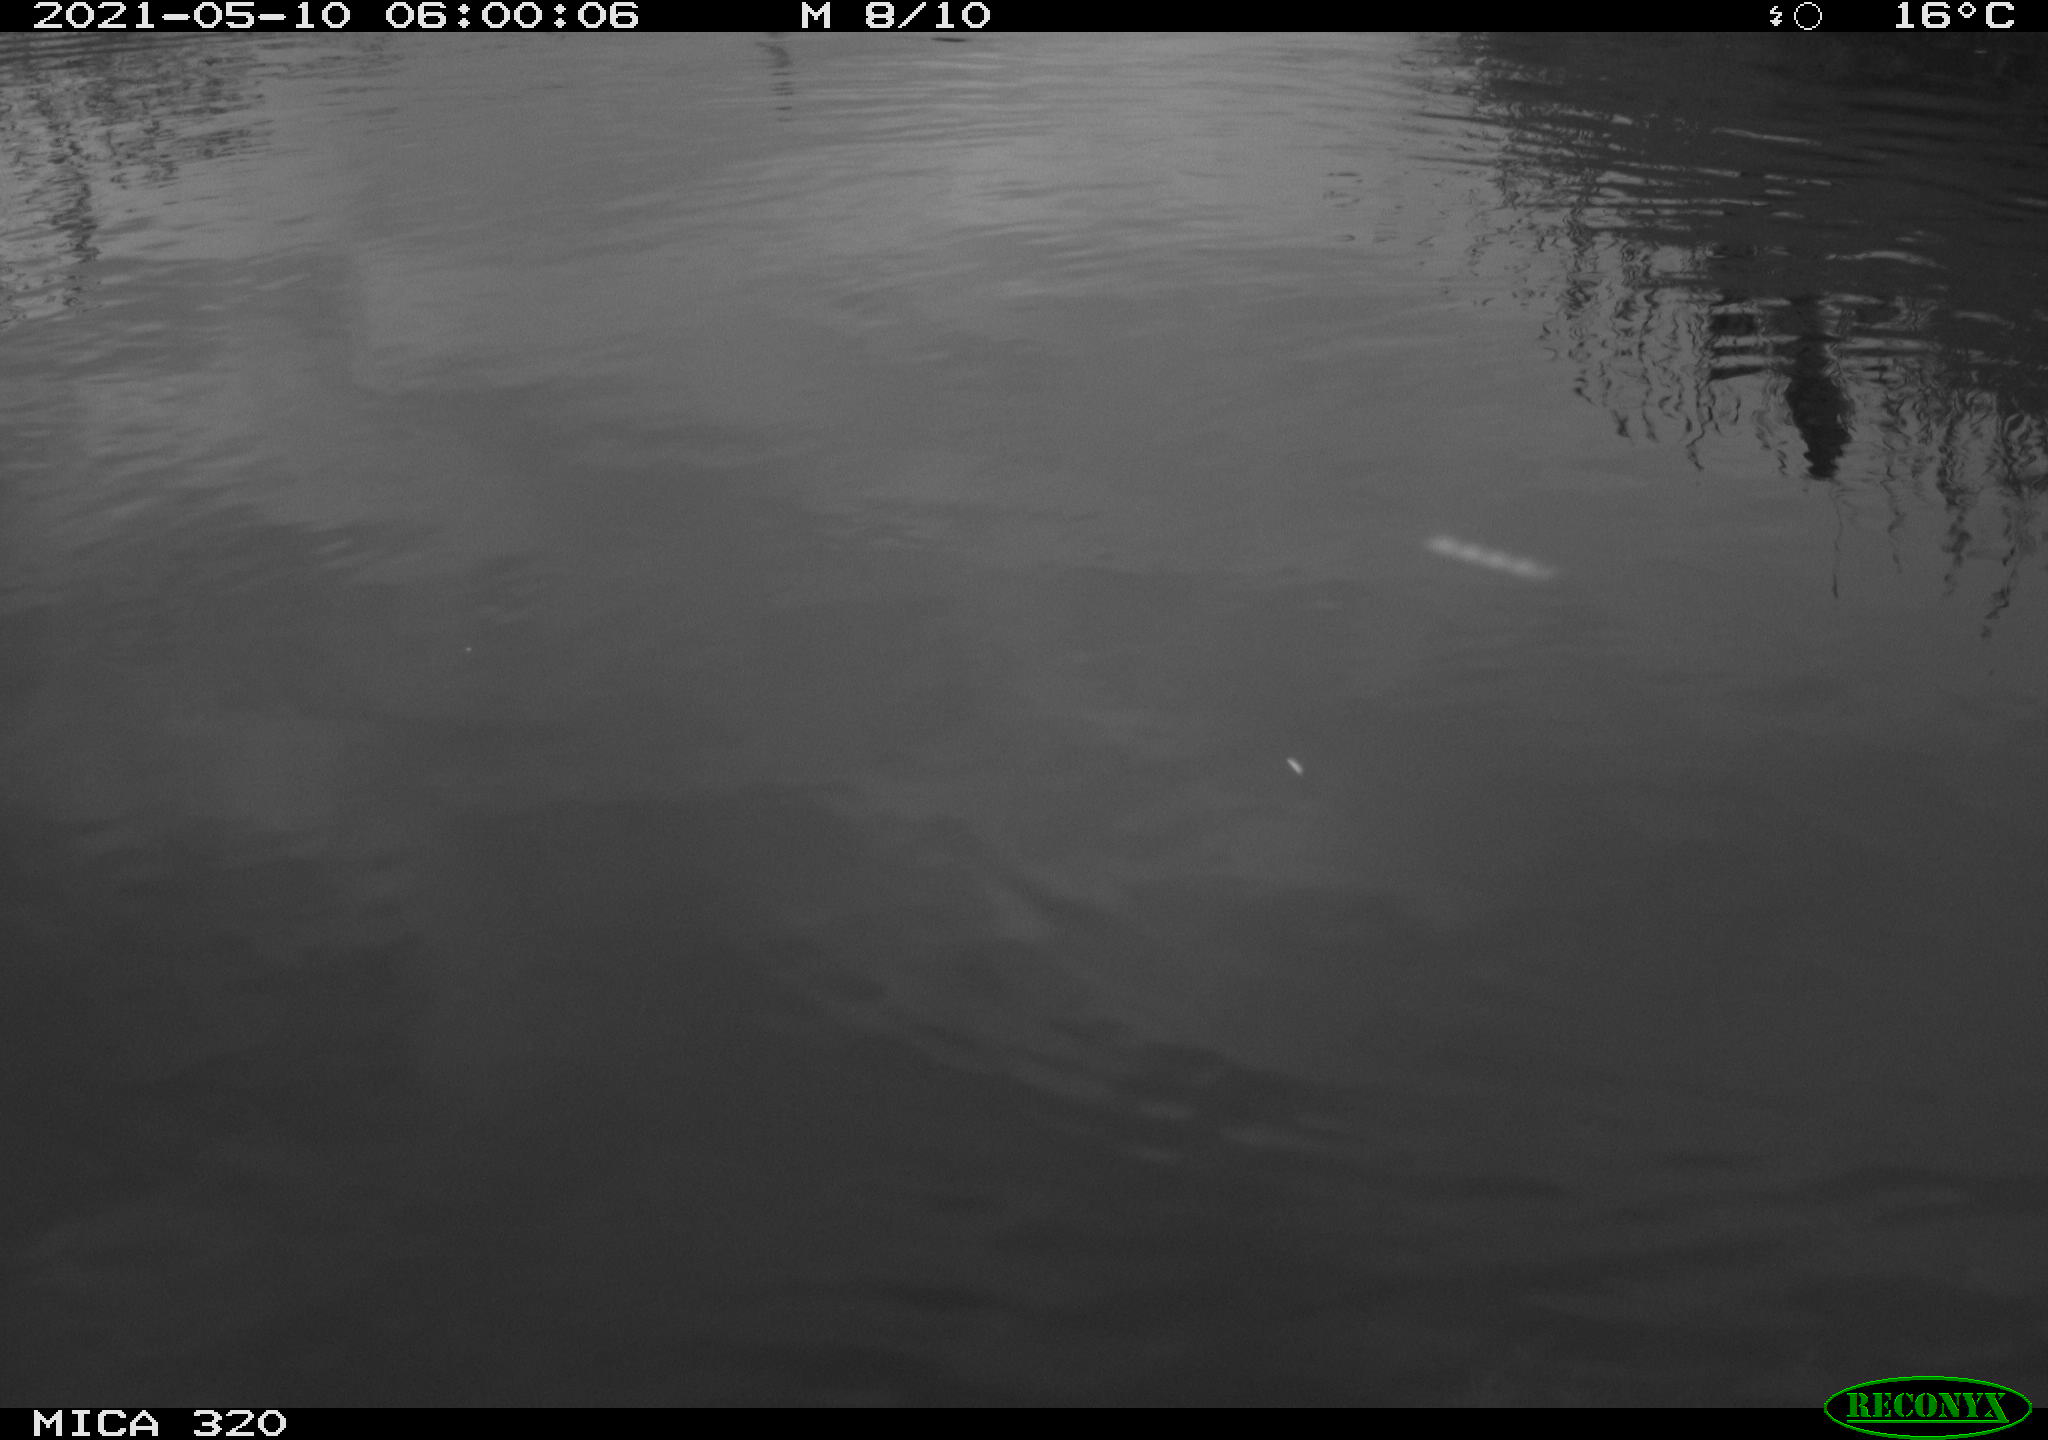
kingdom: Animalia
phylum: Chordata
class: Aves
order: Anseriformes
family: Anatidae
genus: Anas
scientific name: Anas platyrhynchos
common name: Mallard
